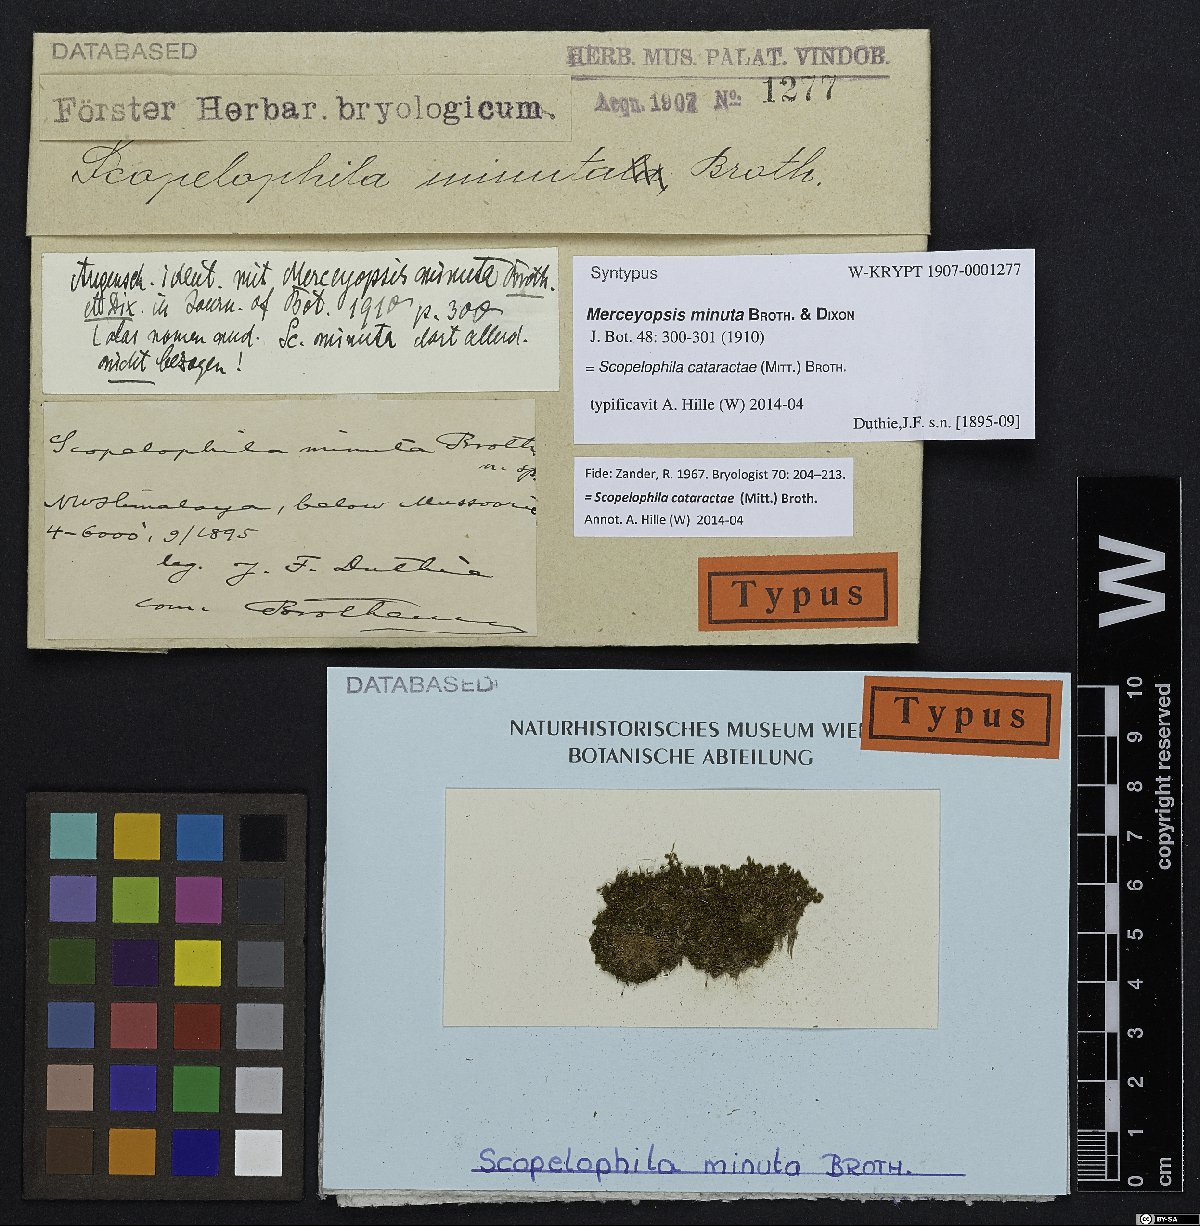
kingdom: Plantae
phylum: Bryophyta
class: Bryopsida
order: Pottiales
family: Pottiaceae
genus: Scopelophila
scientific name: Scopelophila cataractae
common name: Tongue-leaf copper-moss
